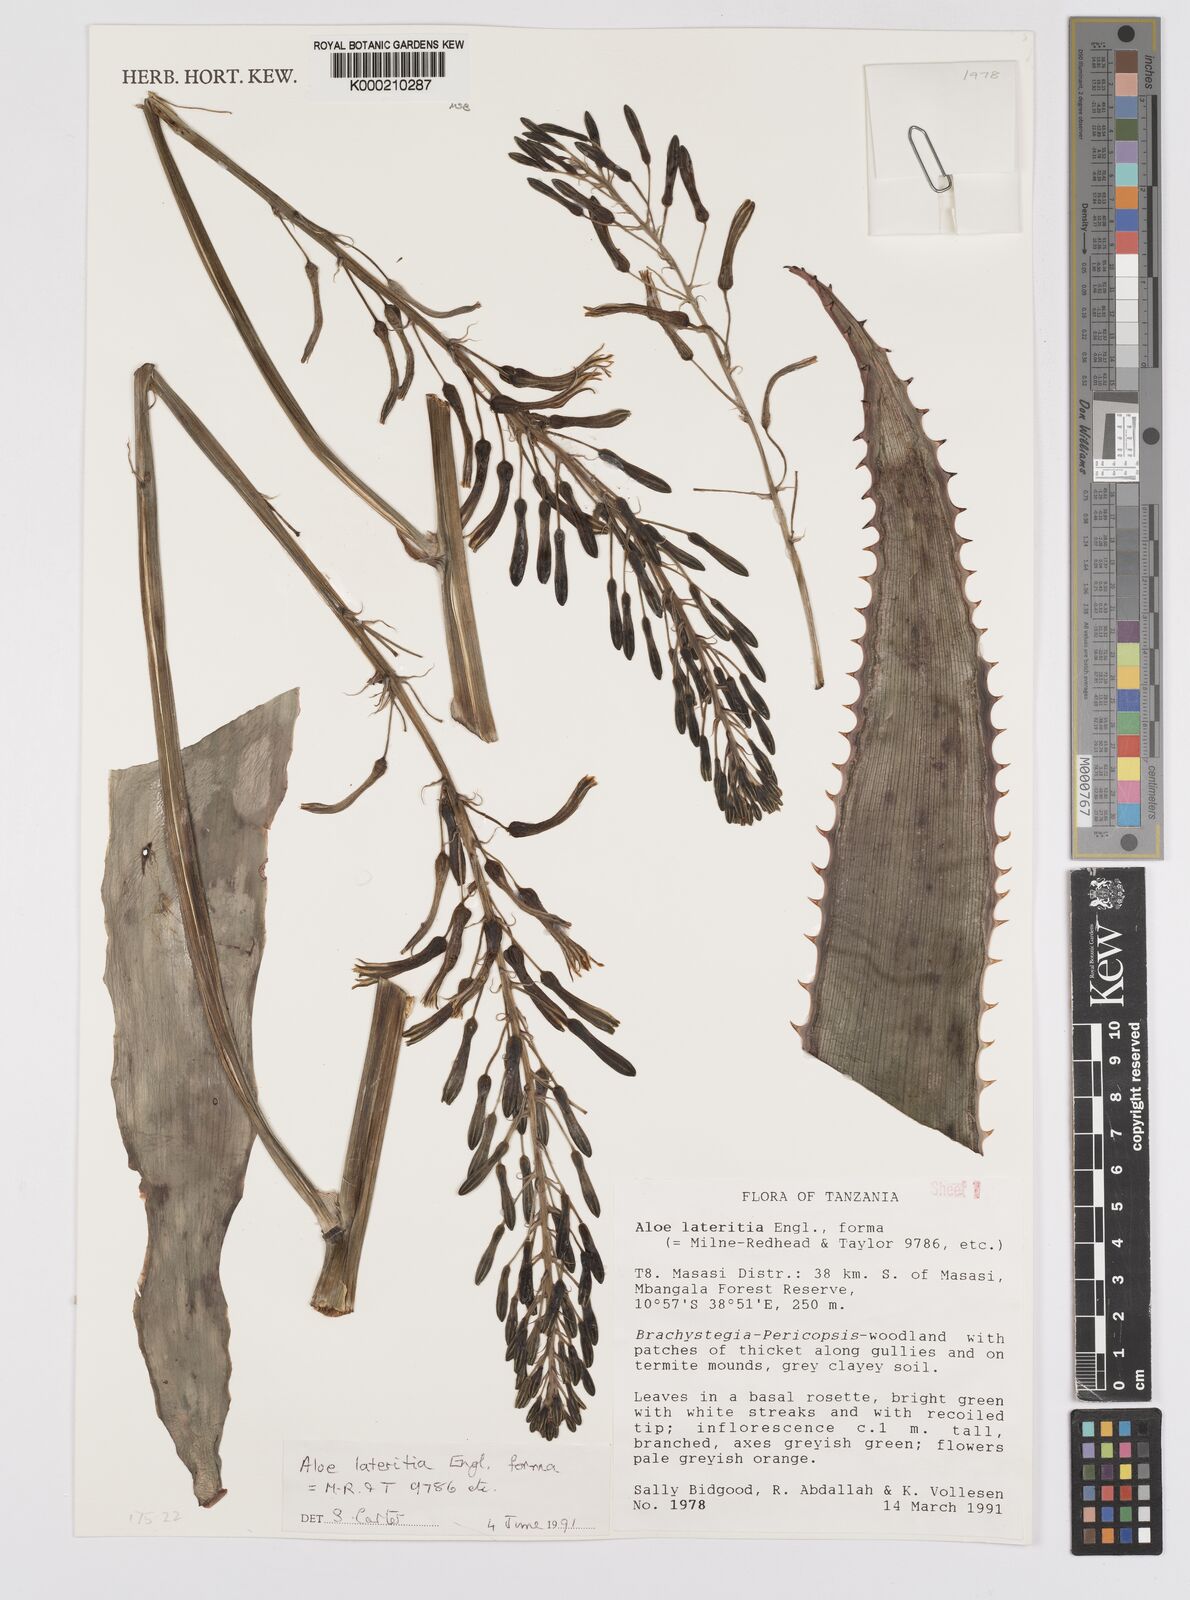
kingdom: Plantae
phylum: Tracheophyta
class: Liliopsida
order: Asparagales
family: Asphodelaceae
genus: Aloe
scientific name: Aloe lateritia
